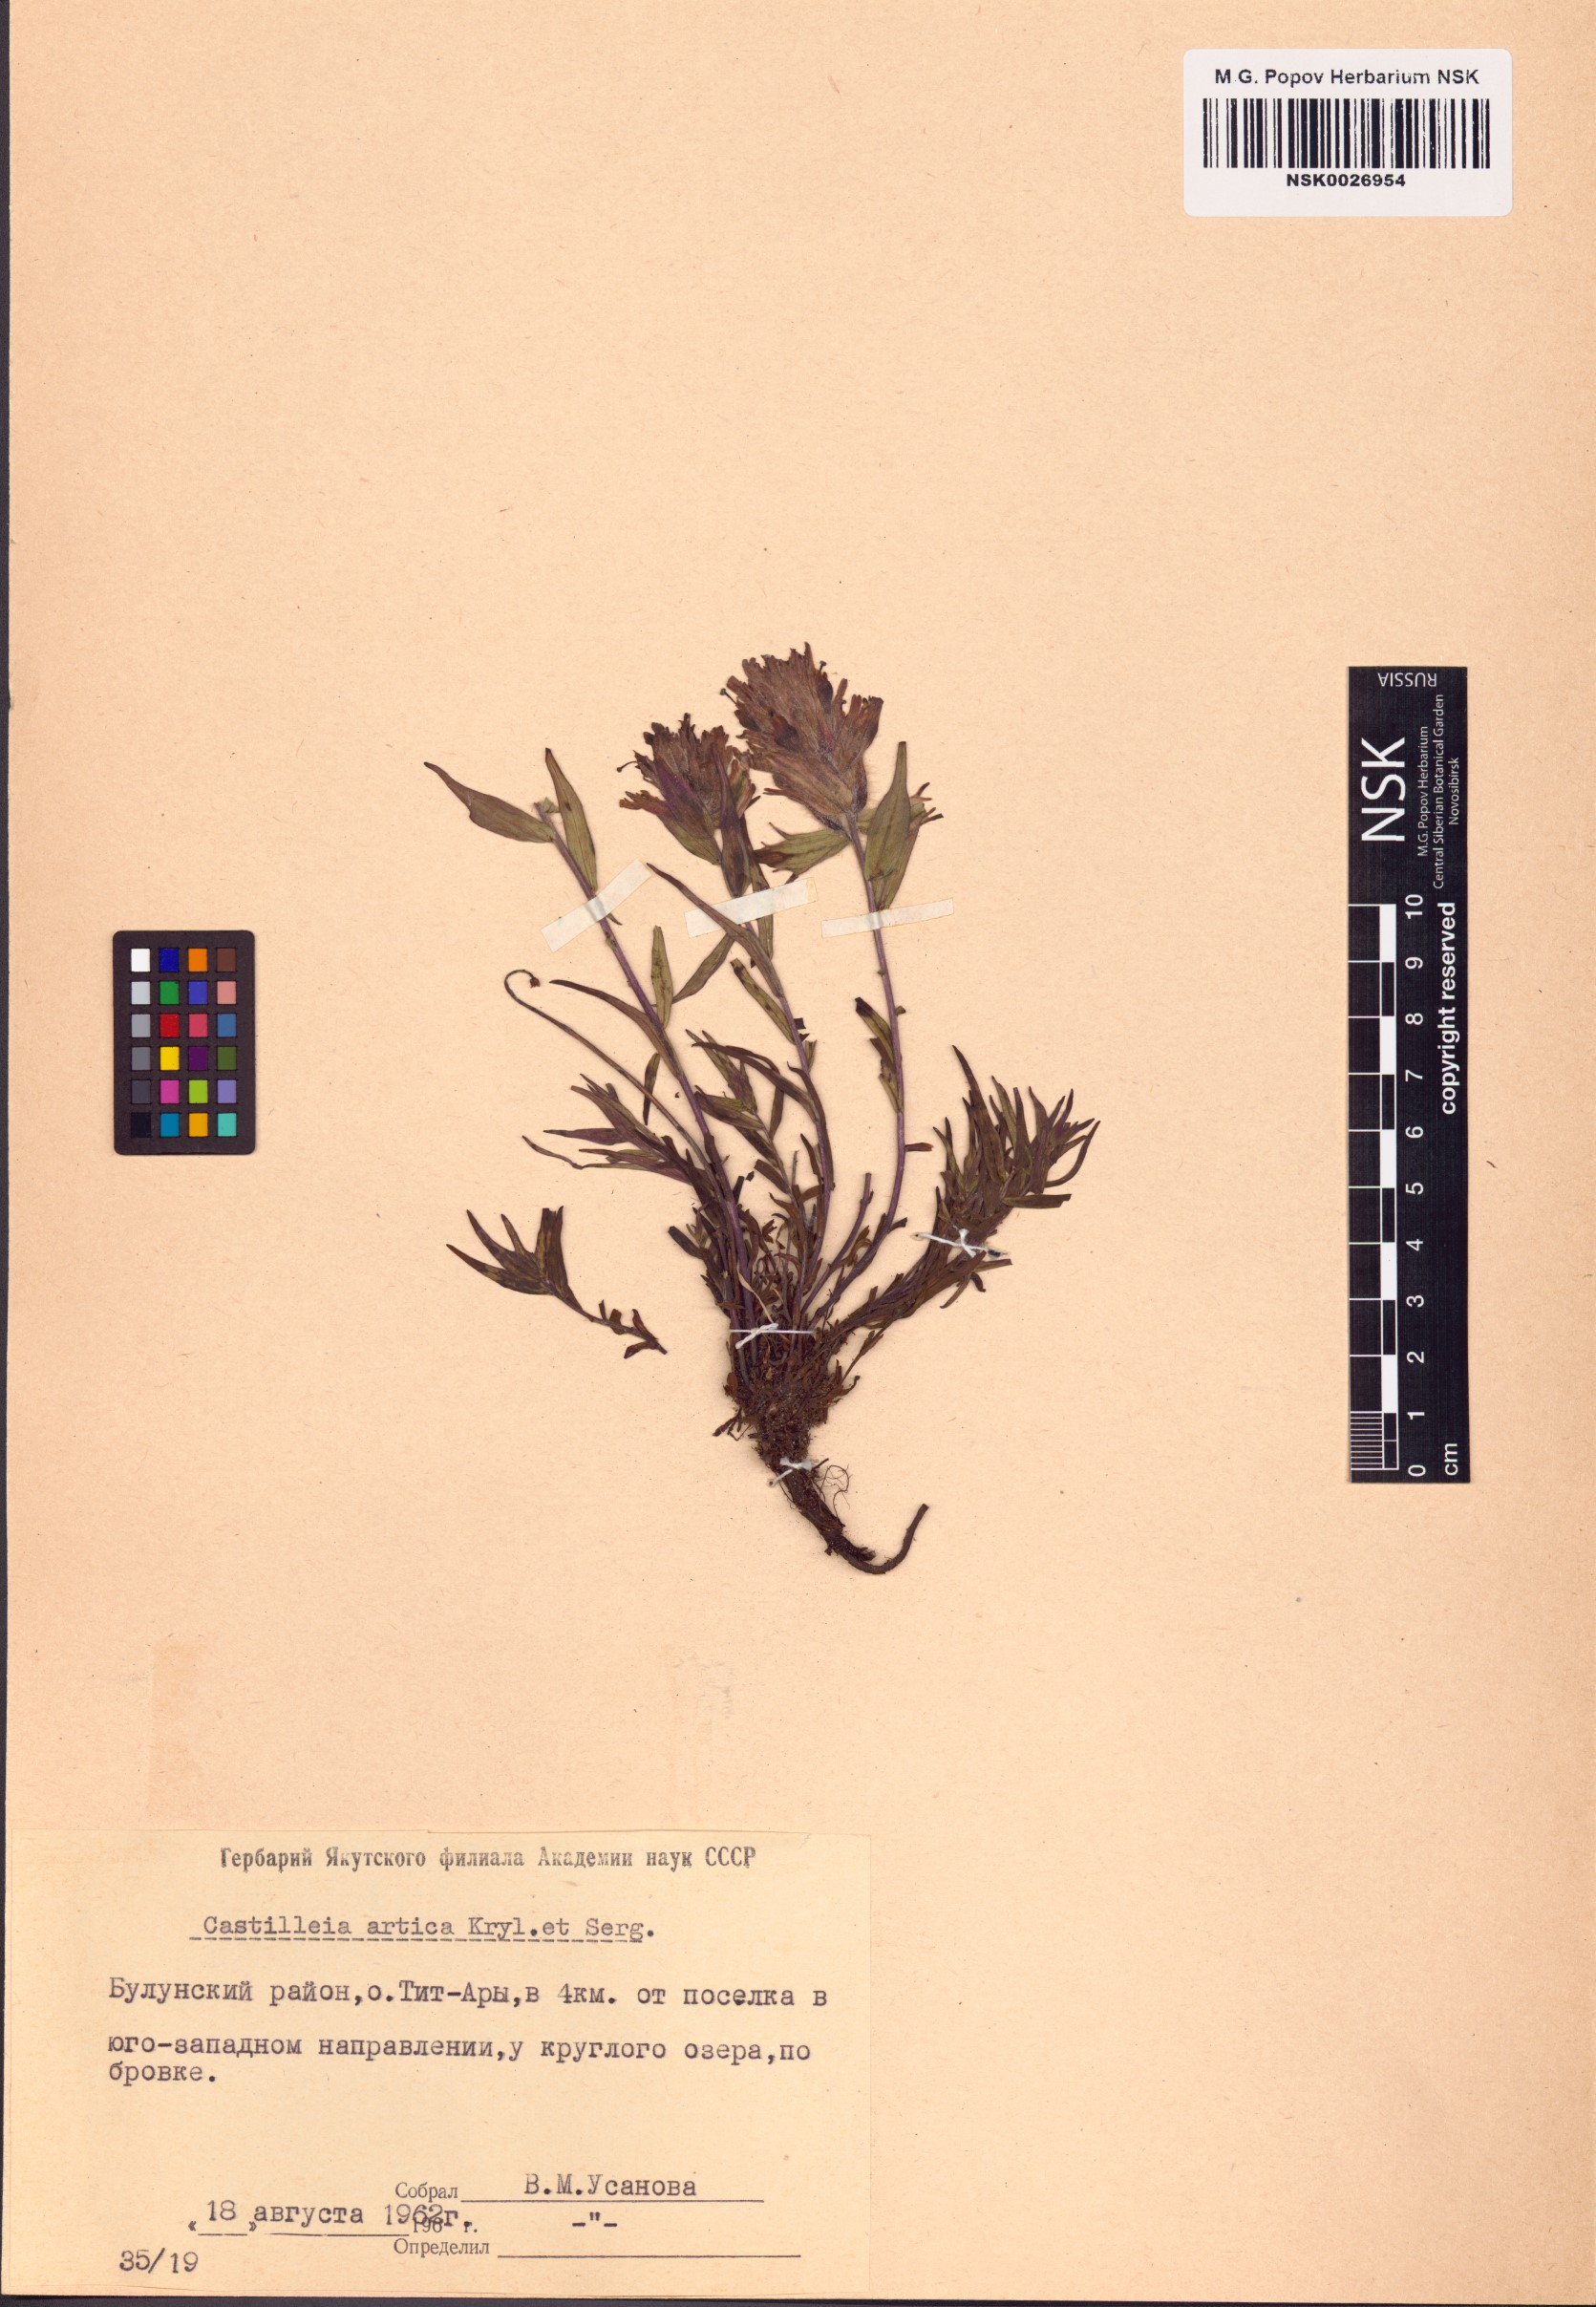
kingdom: Plantae
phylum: Tracheophyta
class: Magnoliopsida
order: Lamiales
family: Orobanchaceae
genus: Castilleja
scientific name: Castilleja arctica
